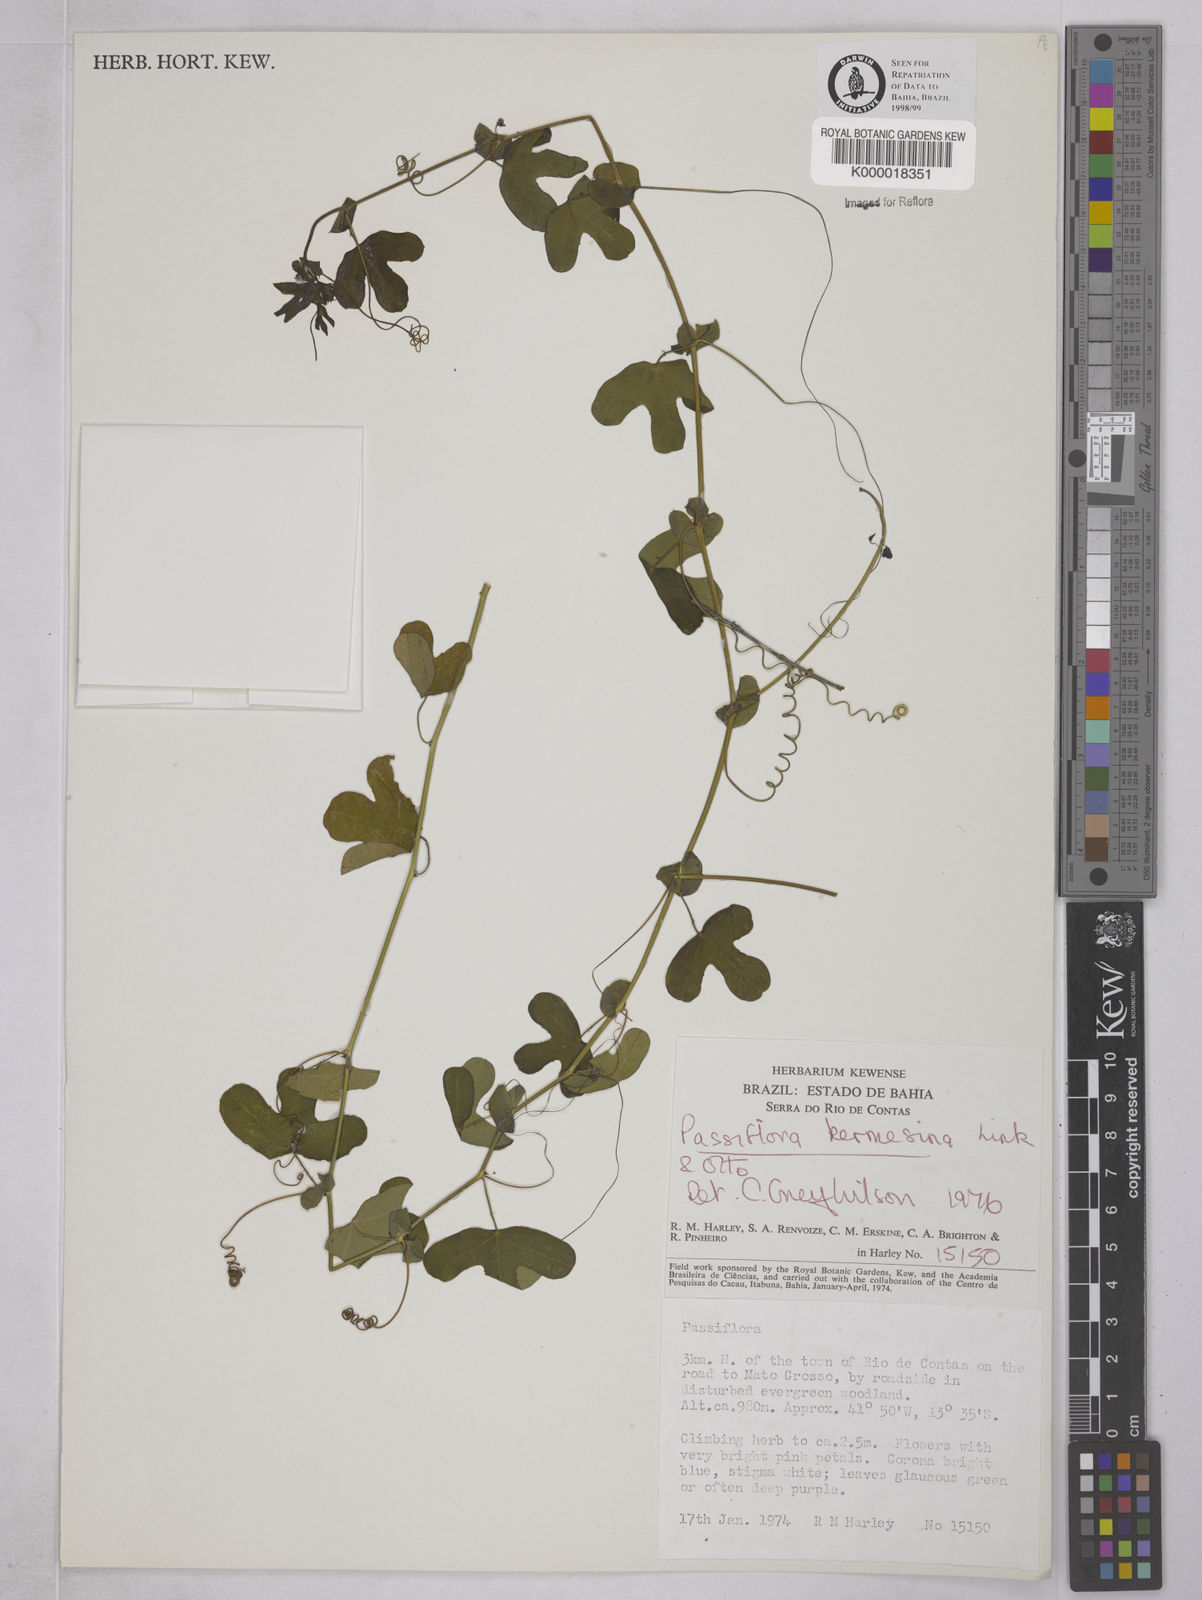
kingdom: Plantae
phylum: Tracheophyta
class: Magnoliopsida
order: Malpighiales
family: Passifloraceae
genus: Passiflora
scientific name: Passiflora kermesina
